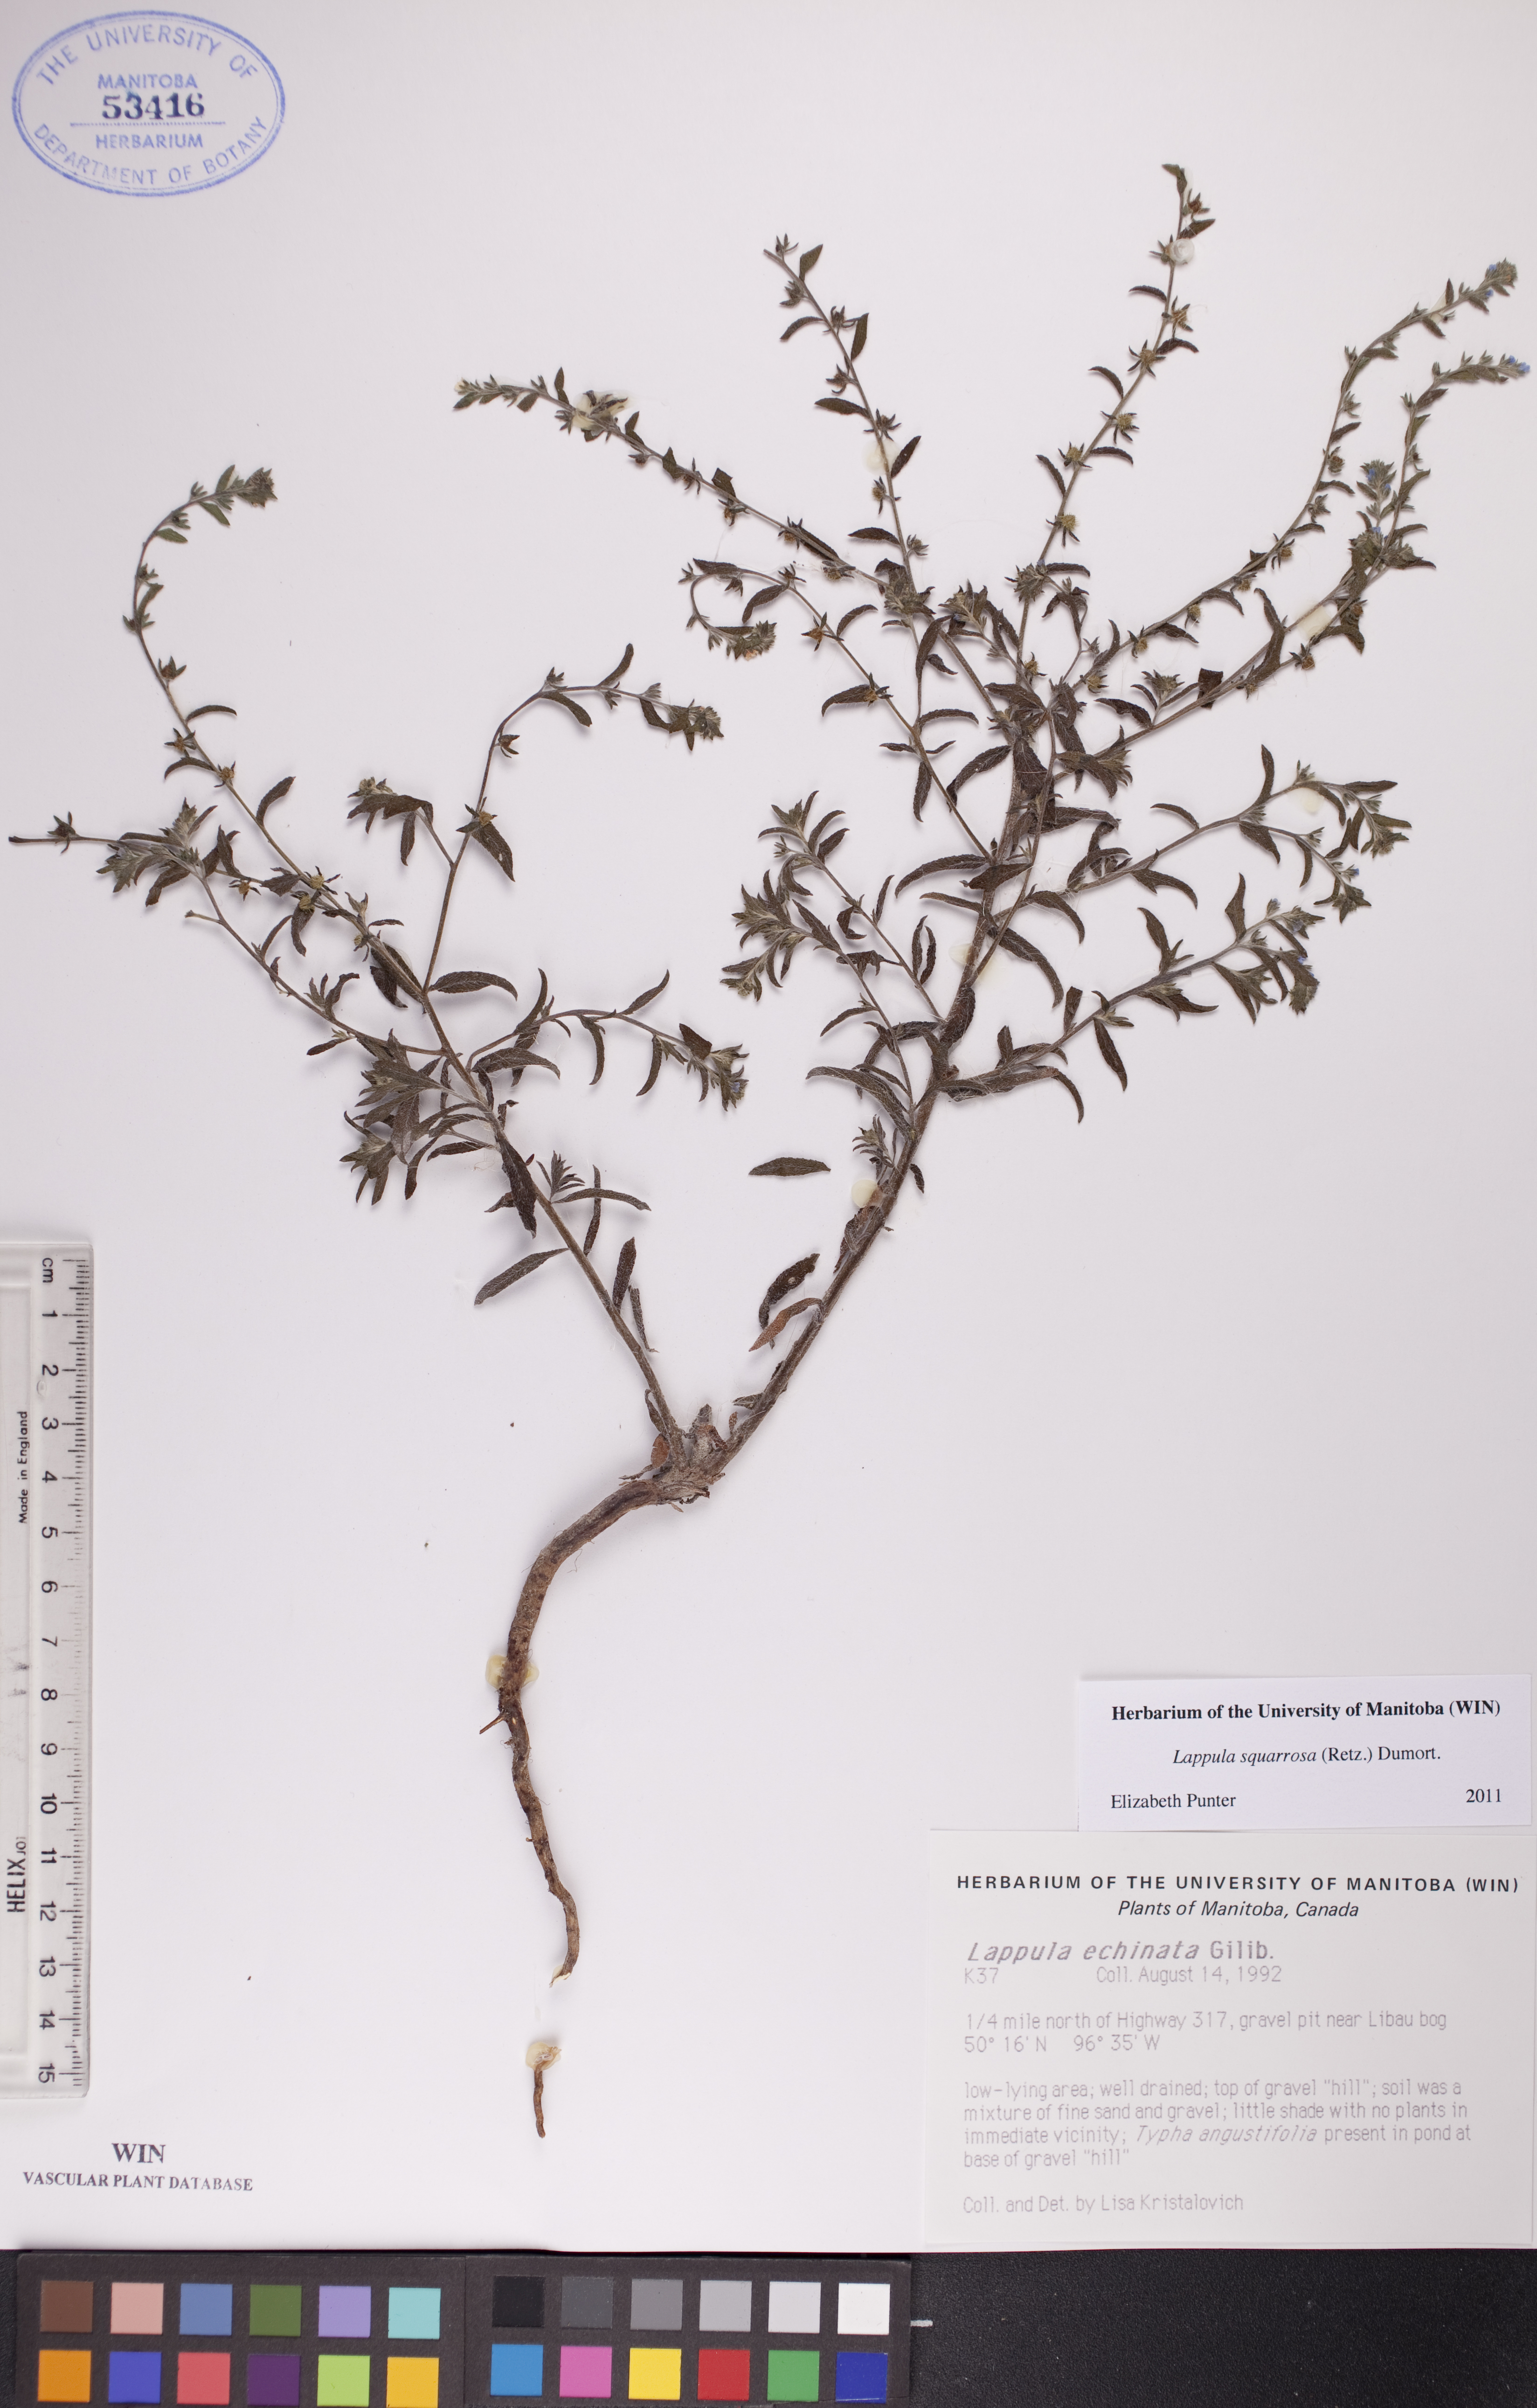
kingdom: Plantae
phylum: Tracheophyta
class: Magnoliopsida
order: Boraginales
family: Boraginaceae
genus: Lappula
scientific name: Lappula squarrosa
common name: European stickseed
